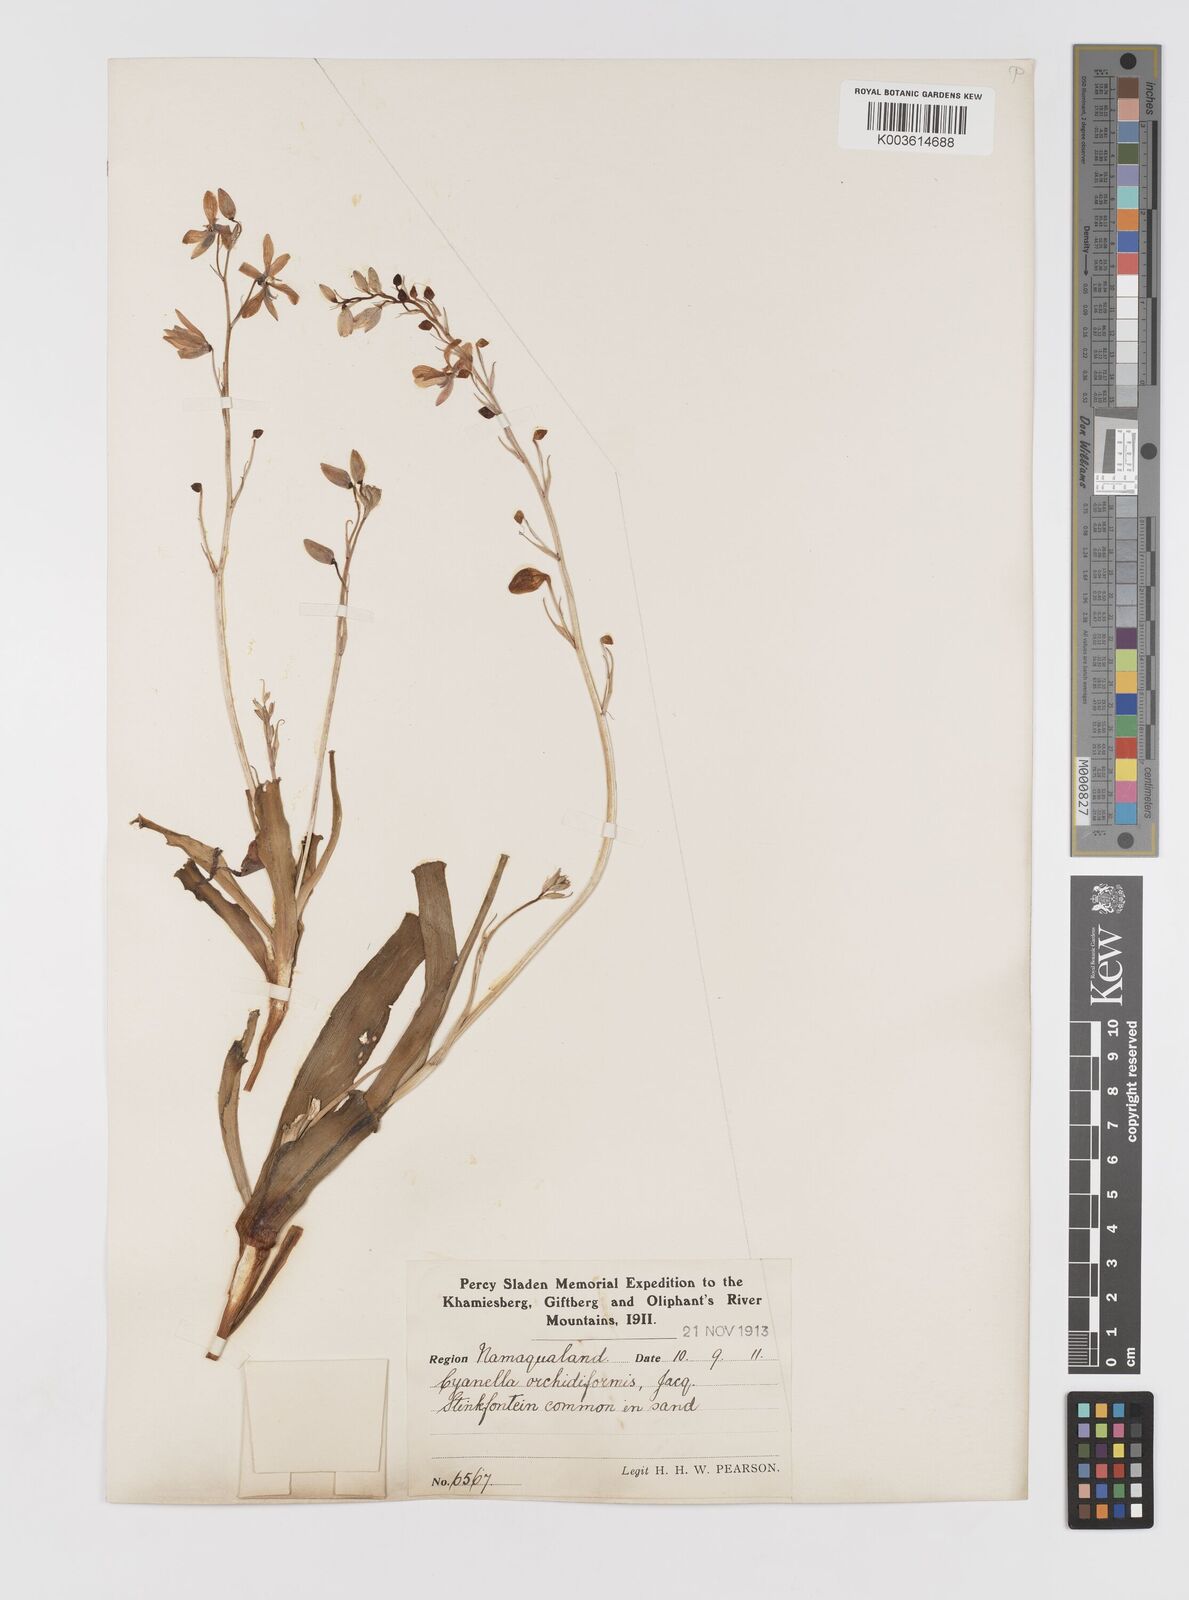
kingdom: Plantae
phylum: Tracheophyta
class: Liliopsida
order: Asparagales
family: Tecophilaeaceae
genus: Cyanella
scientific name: Cyanella orchidiformis
